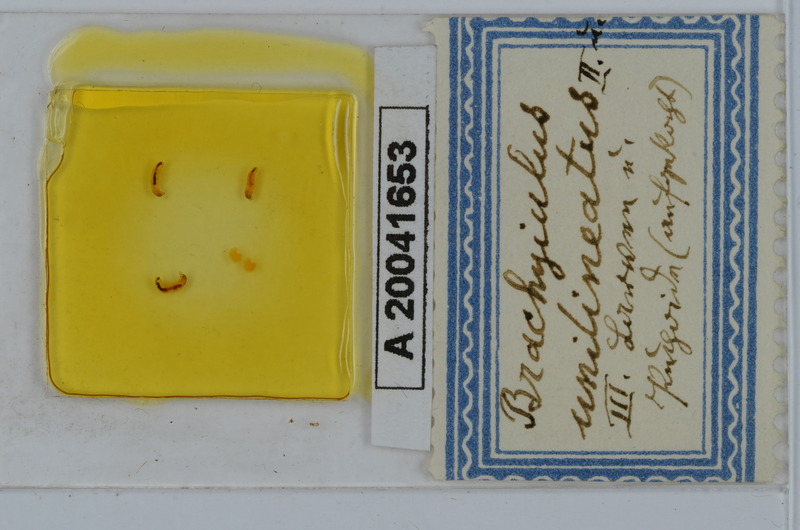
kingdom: Animalia
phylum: Arthropoda
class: Diplopoda
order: Julida
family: Julidae
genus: Brachyiulus
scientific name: Brachyiulus unilineatus
